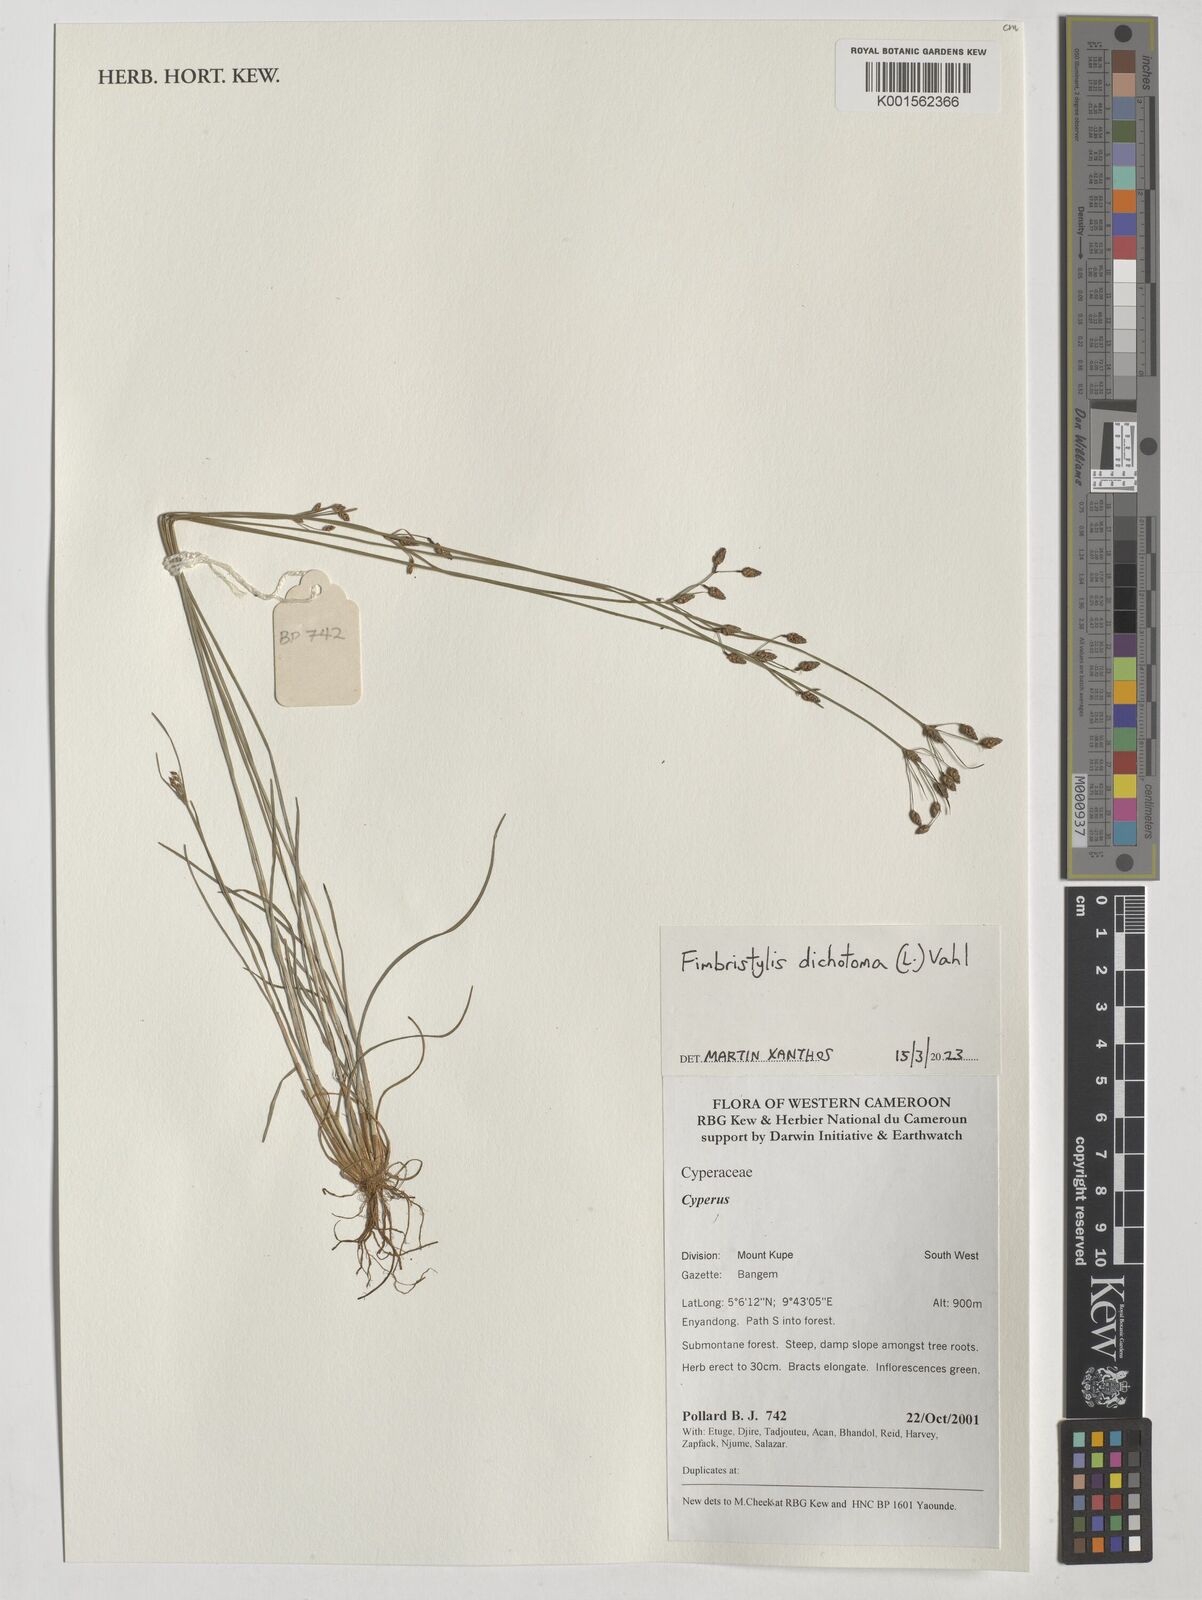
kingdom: Plantae
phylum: Tracheophyta
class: Liliopsida
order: Poales
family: Cyperaceae
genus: Fimbristylis
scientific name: Fimbristylis dichotoma
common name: Forked fimbry
